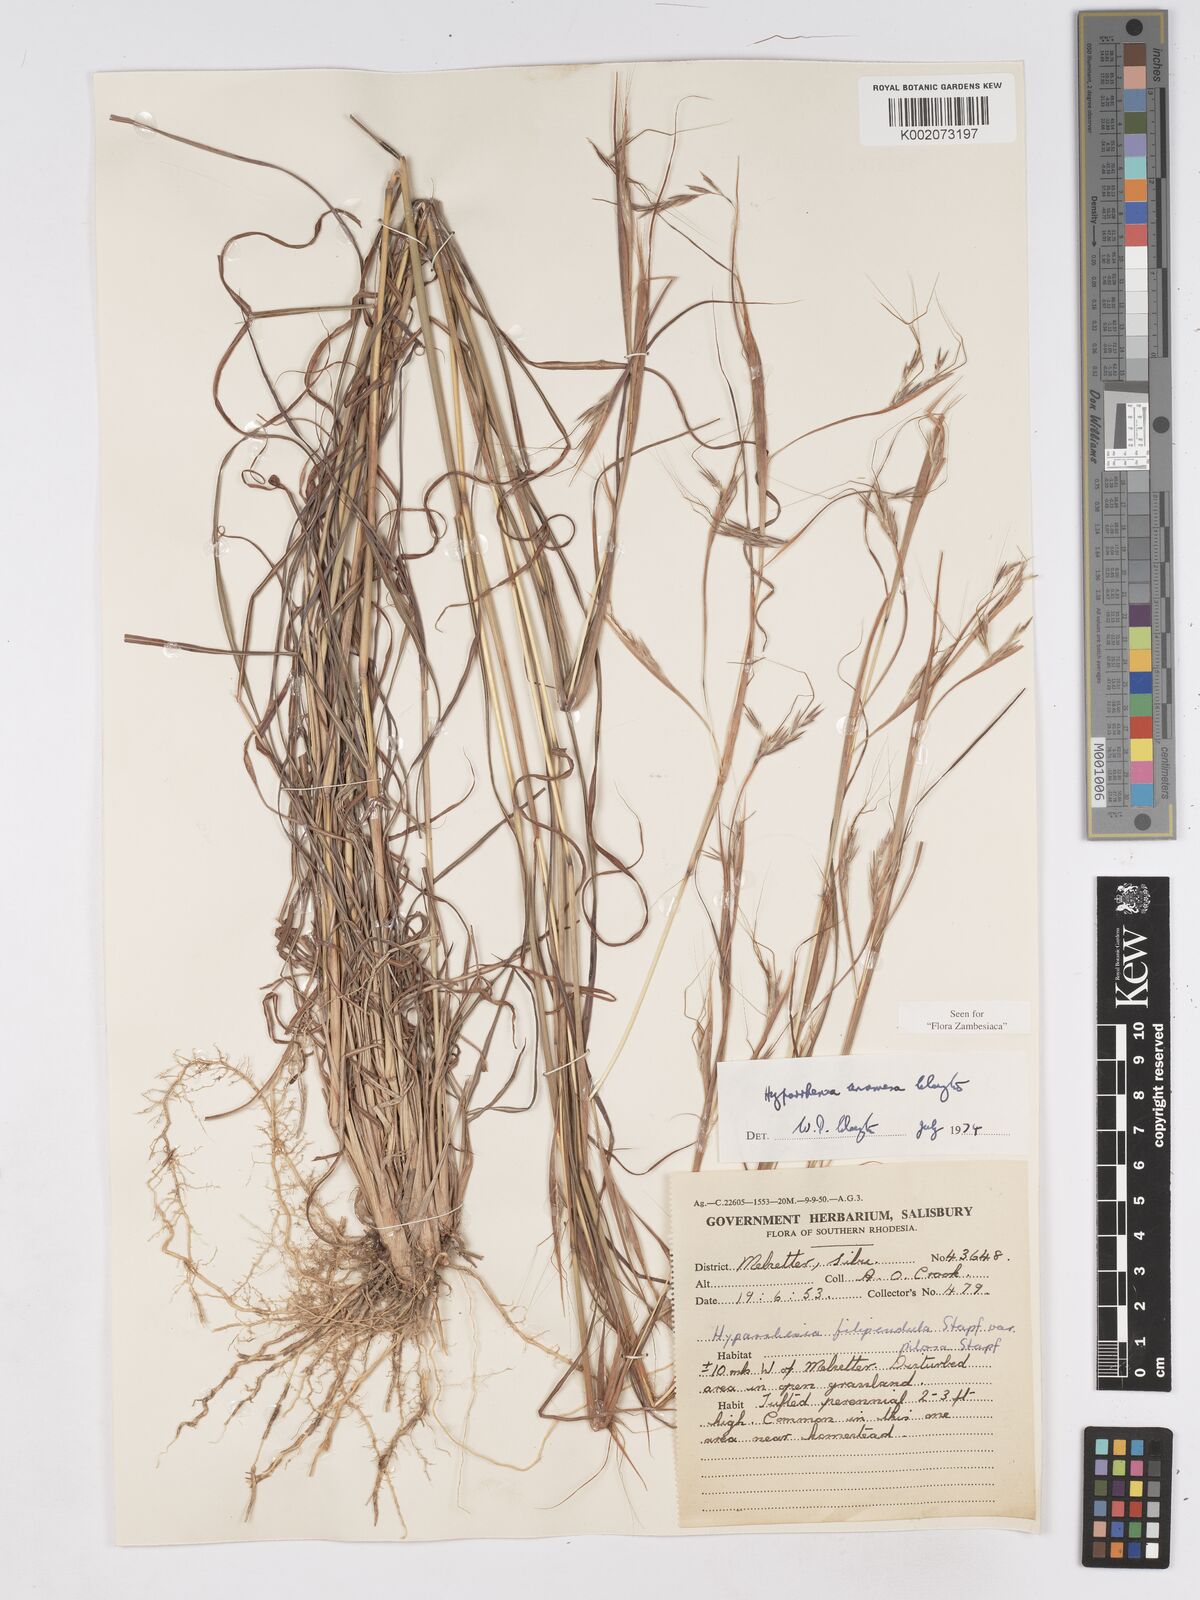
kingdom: Plantae
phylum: Tracheophyta
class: Liliopsida
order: Poales
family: Poaceae
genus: Hyparrhenia
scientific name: Hyparrhenia anamesa
